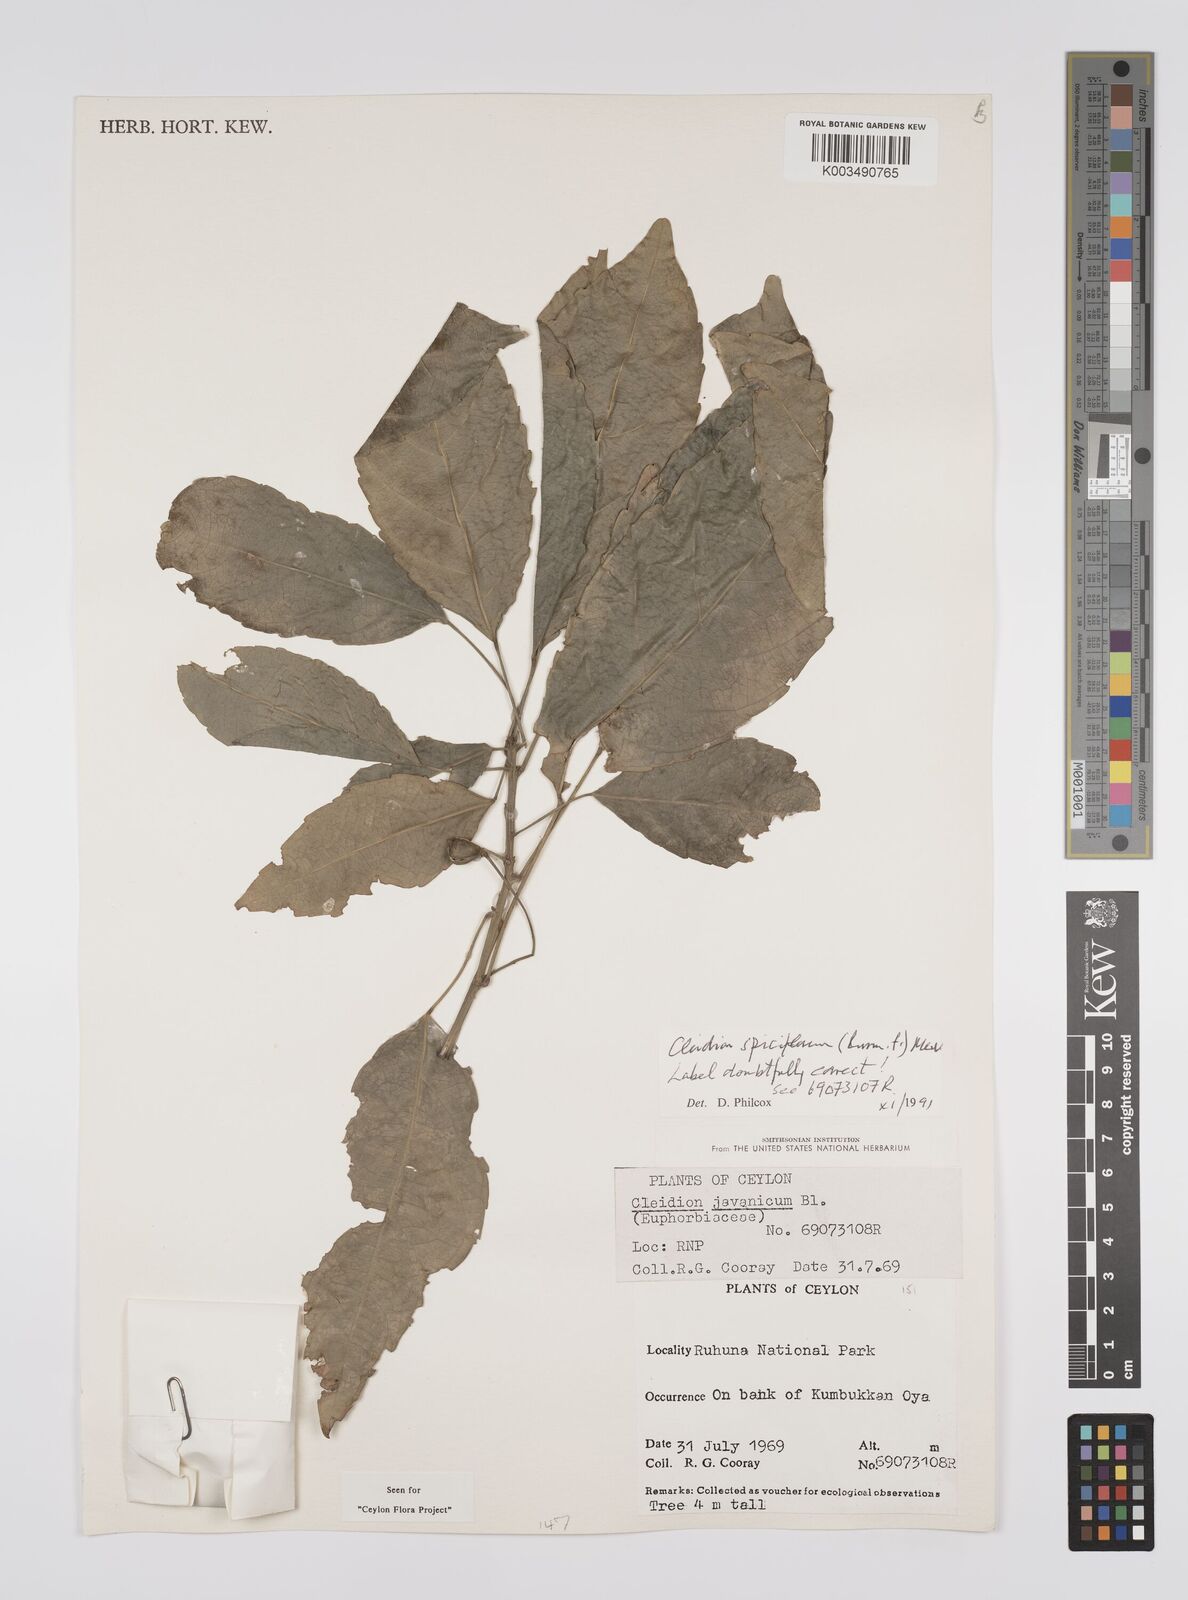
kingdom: Plantae
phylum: Tracheophyta
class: Magnoliopsida
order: Malpighiales
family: Euphorbiaceae
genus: Acalypha
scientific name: Acalypha spiciflora
